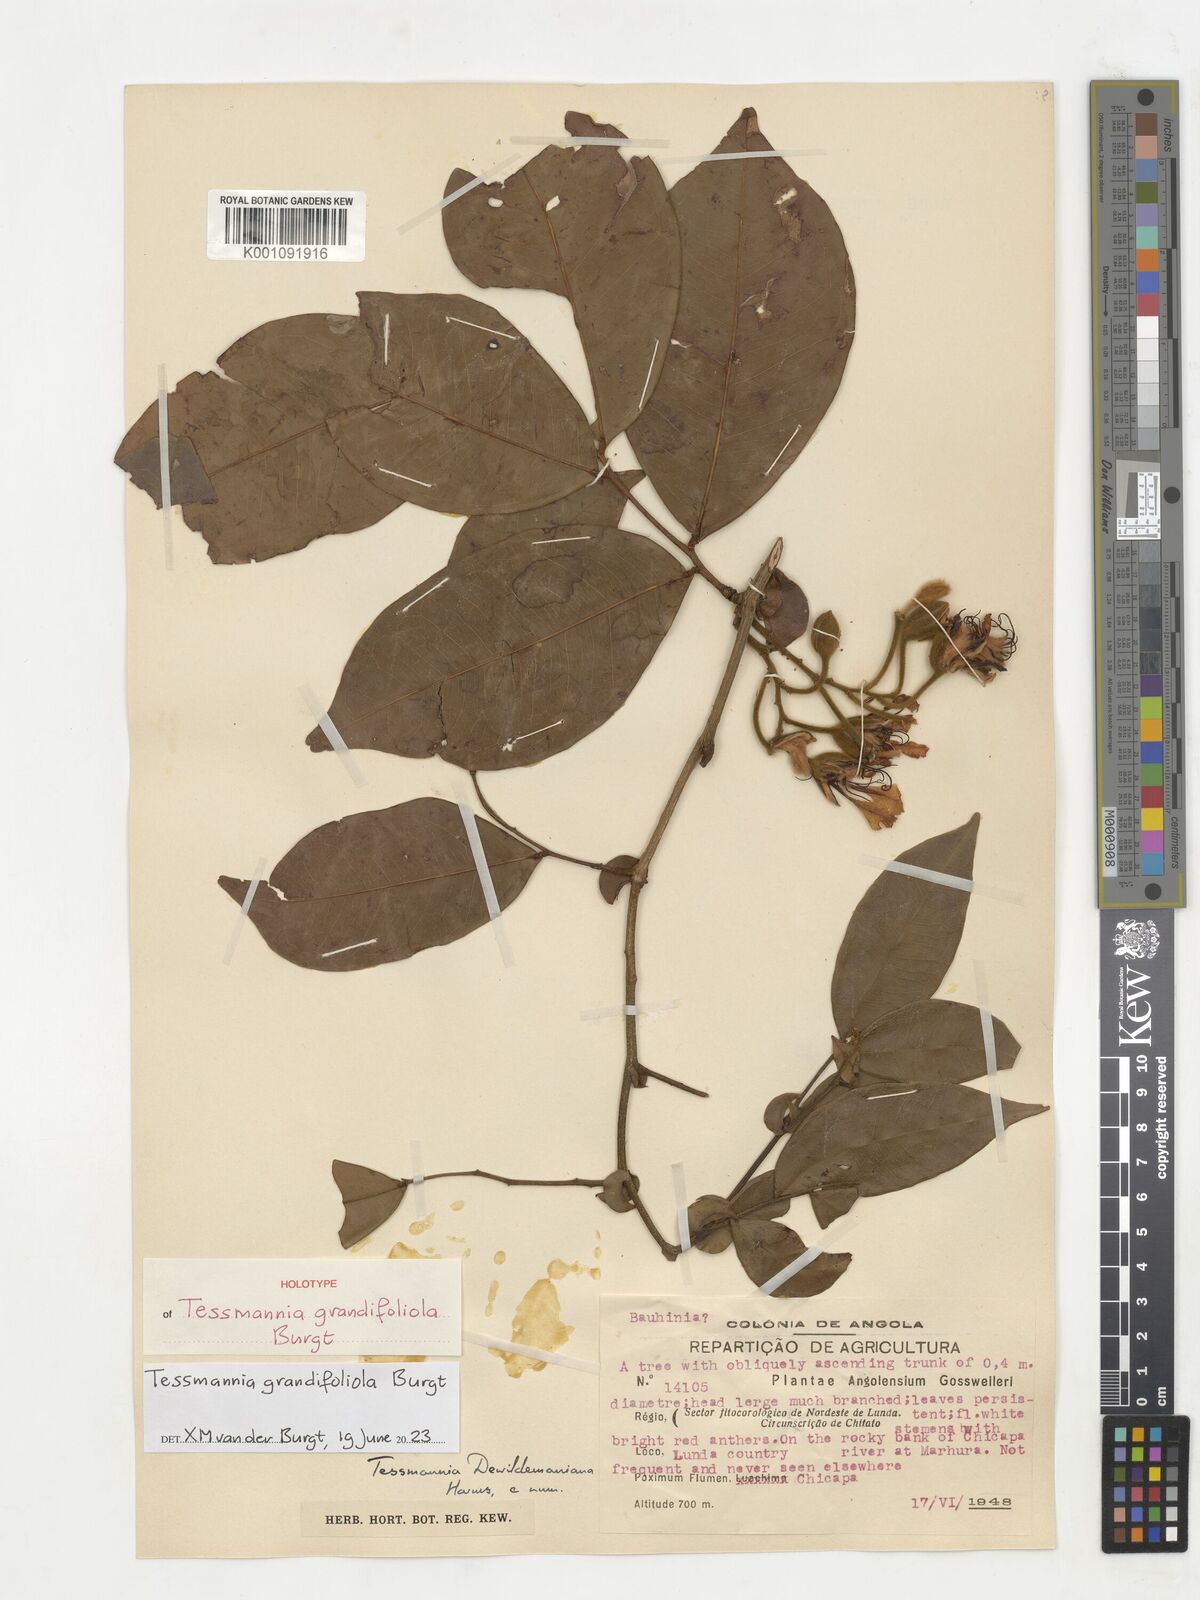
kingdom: Plantae
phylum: Tracheophyta
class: Magnoliopsida
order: Fabales
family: Fabaceae
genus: Tessmannia
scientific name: Tessmannia dewildemaniana
